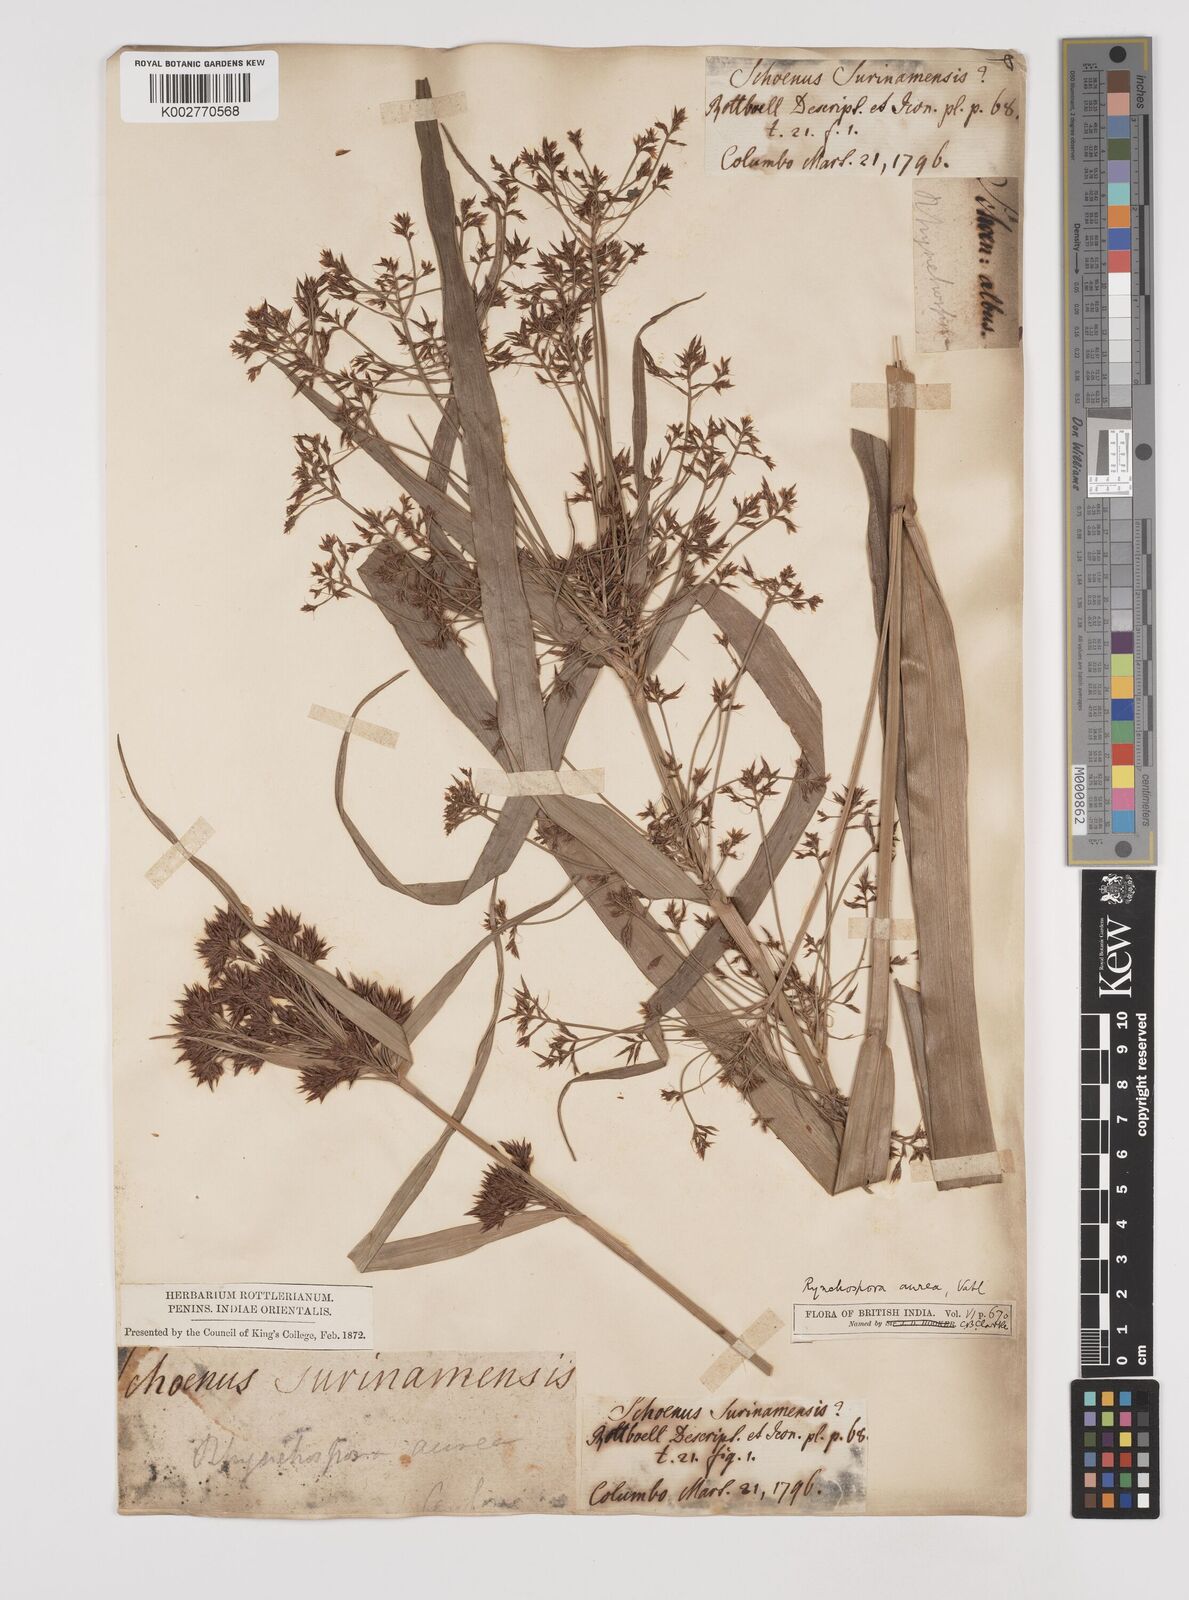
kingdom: Plantae
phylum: Tracheophyta
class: Liliopsida
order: Poales
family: Cyperaceae
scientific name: Cyperaceae
